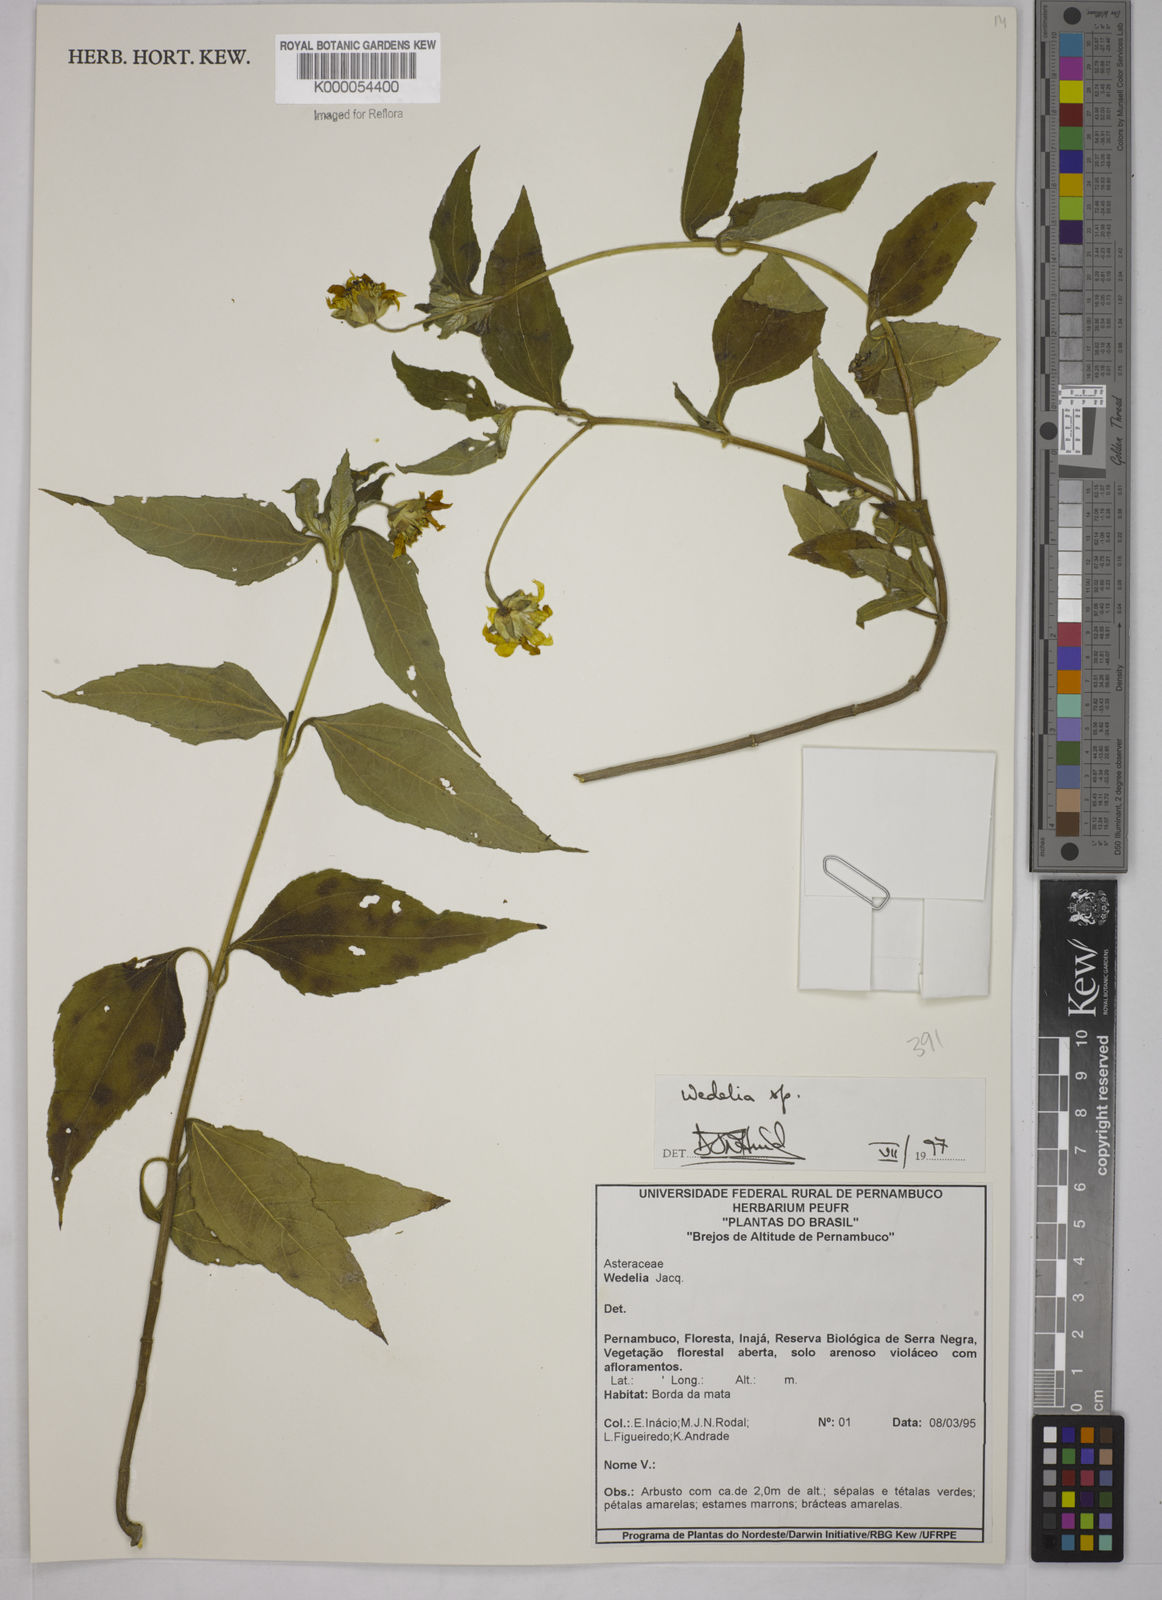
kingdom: Plantae
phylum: Tracheophyta
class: Magnoliopsida
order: Asterales
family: Asteraceae
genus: Wedelia
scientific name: Wedelia
